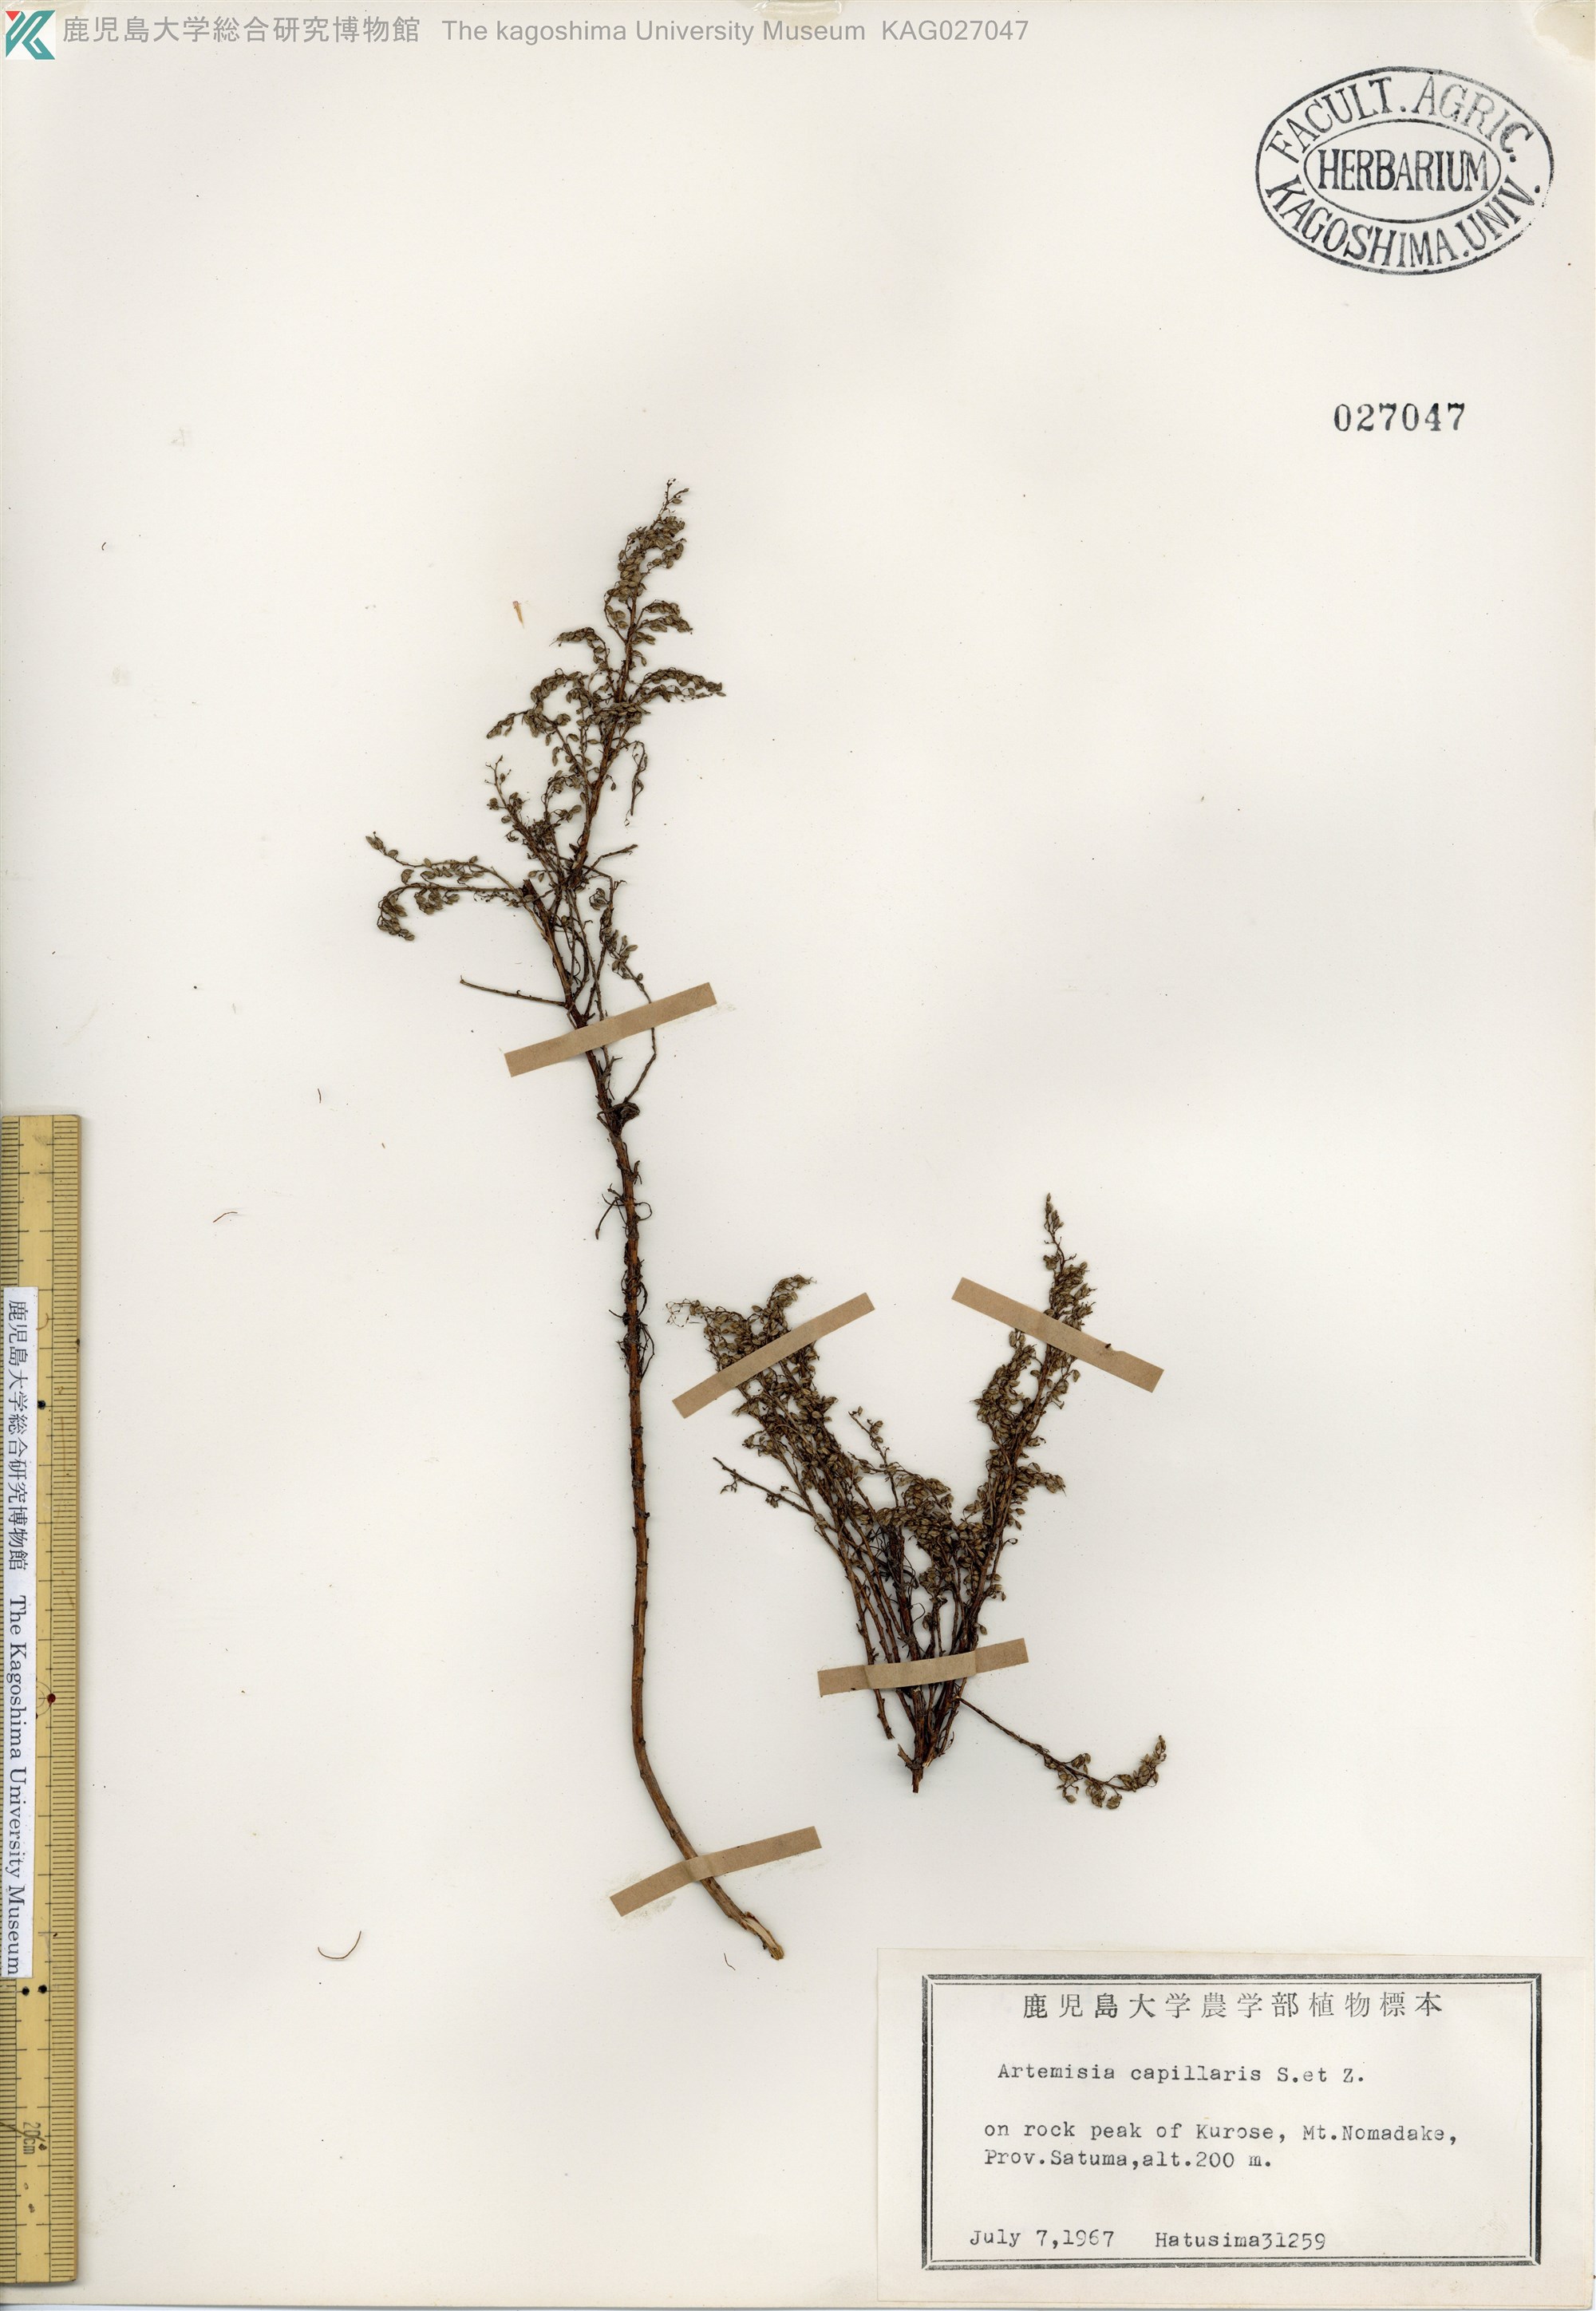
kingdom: Plantae
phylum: Tracheophyta
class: Magnoliopsida
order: Asterales
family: Asteraceae
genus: Artemisia
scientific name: Artemisia capillaris
